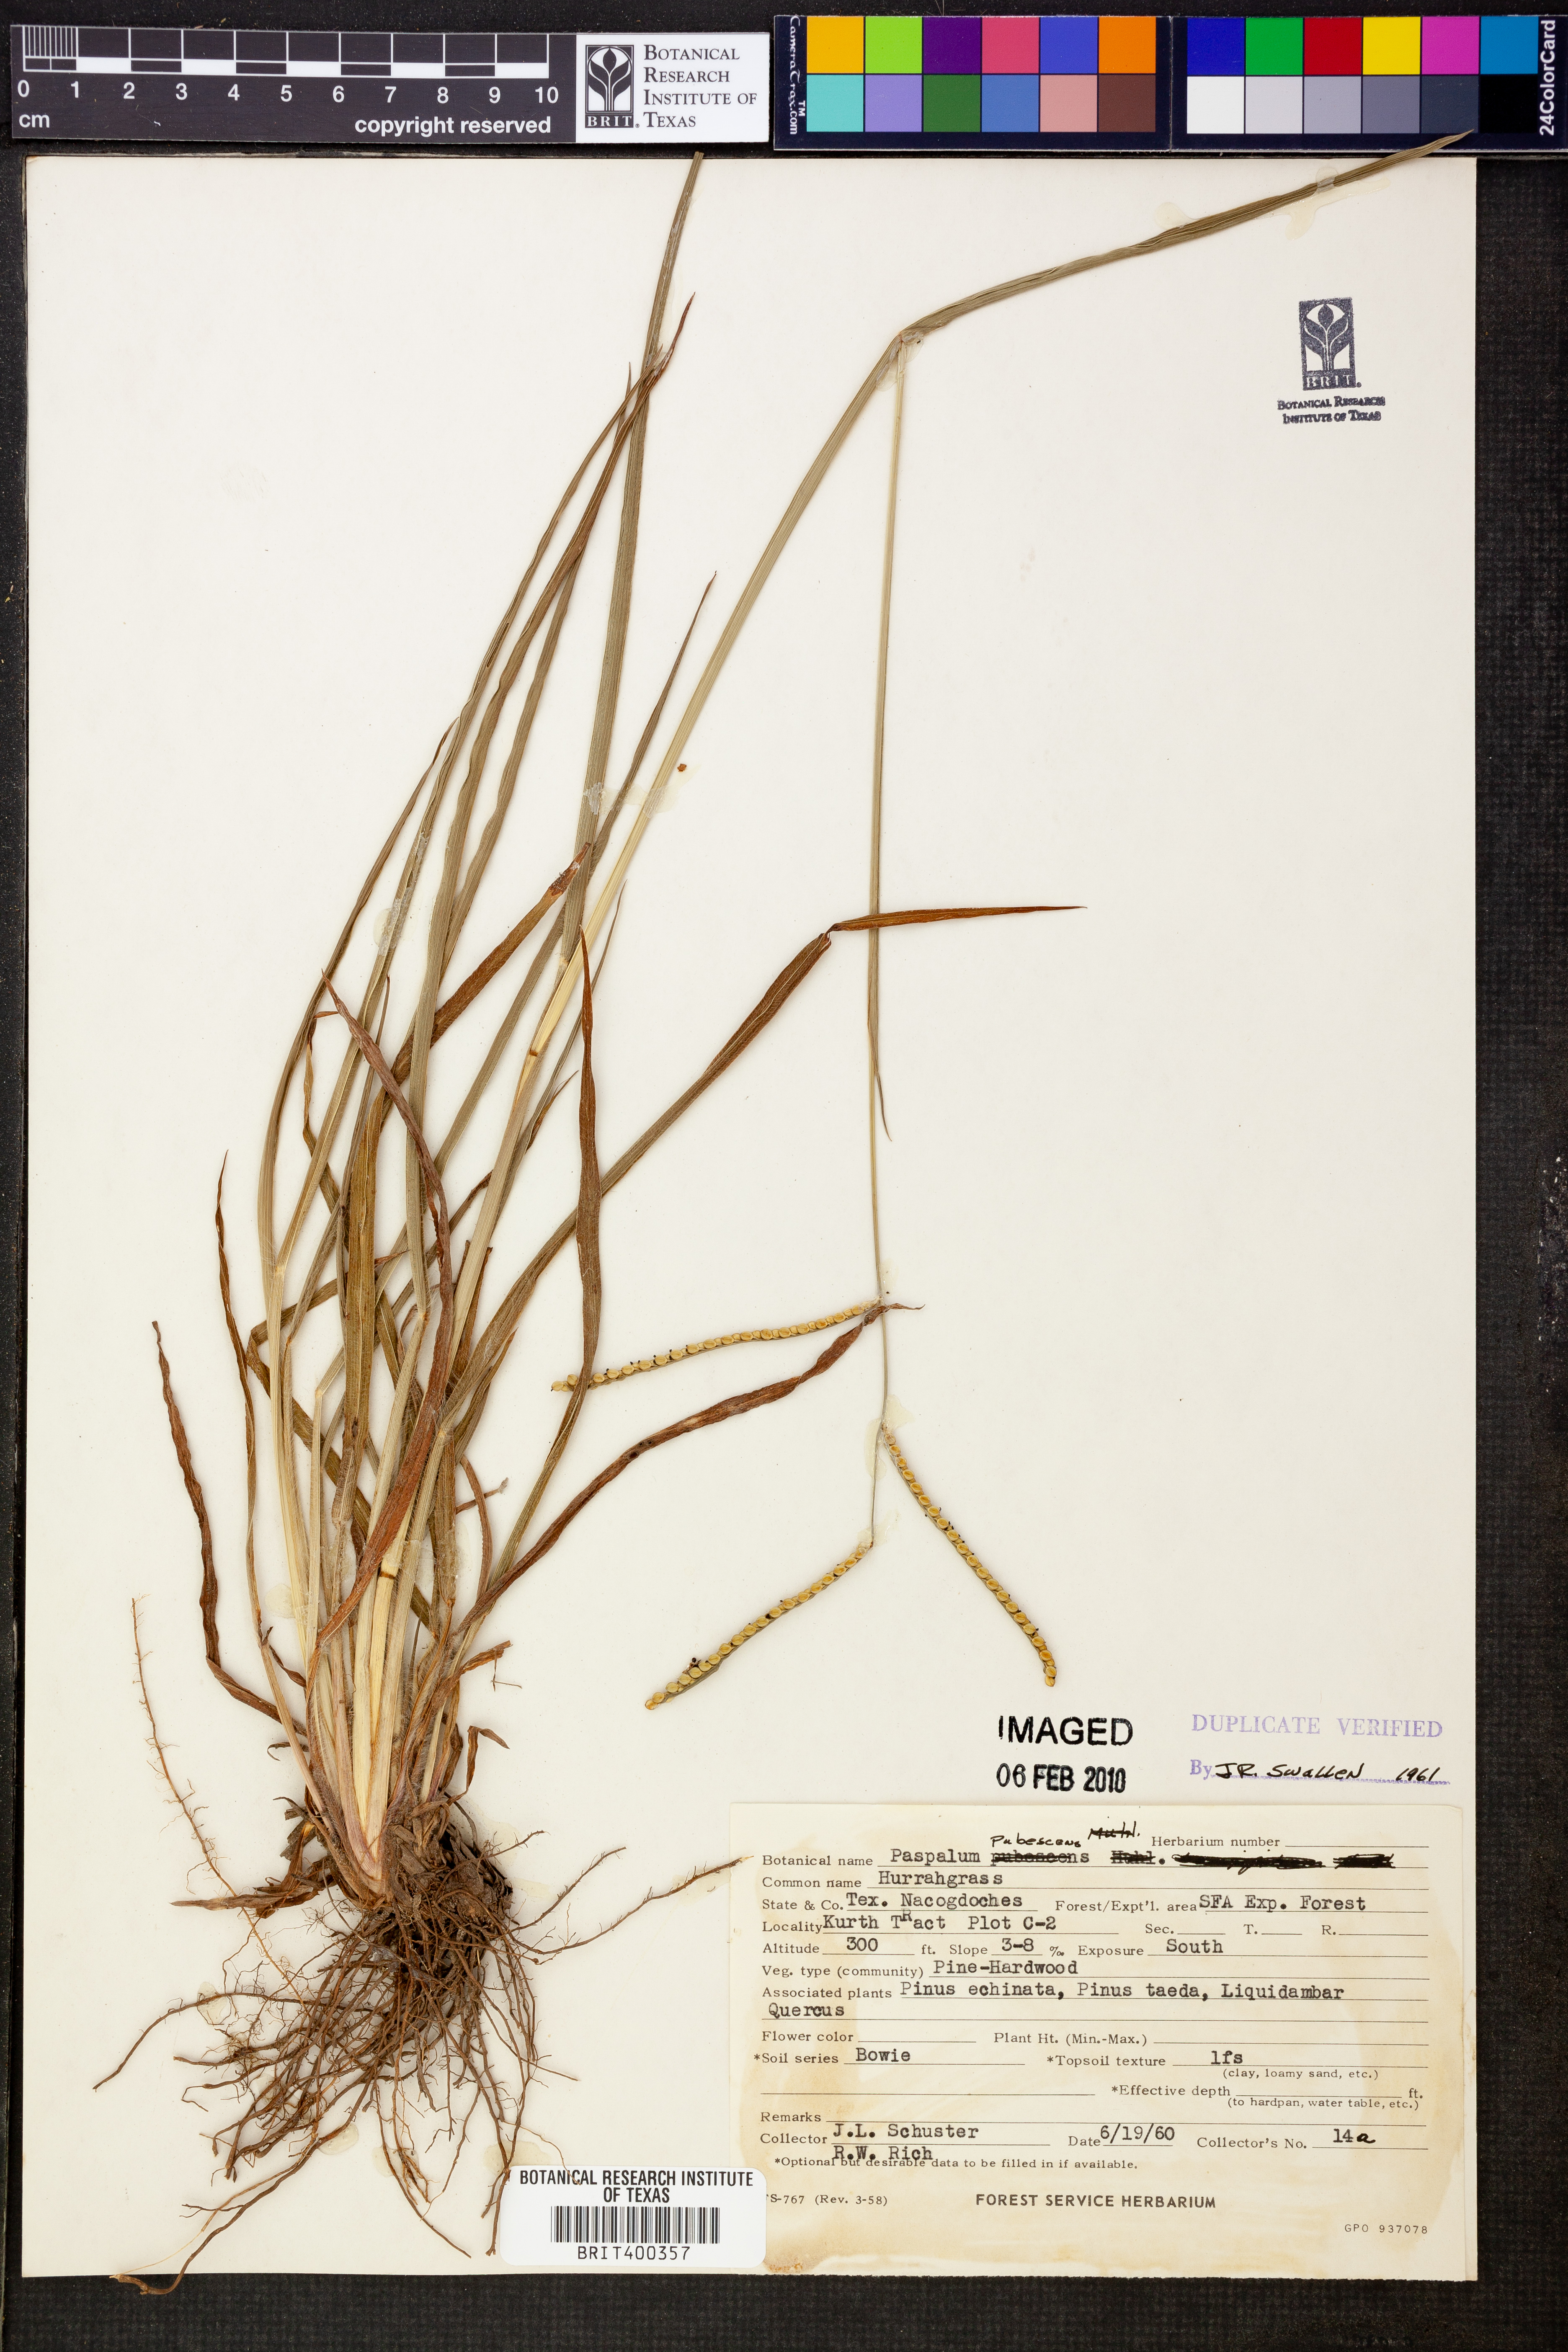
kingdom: Plantae
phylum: Tracheophyta
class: Liliopsida
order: Poales
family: Poaceae
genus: Paspalum
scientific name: Paspalum setaceum
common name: Slender paspalum
